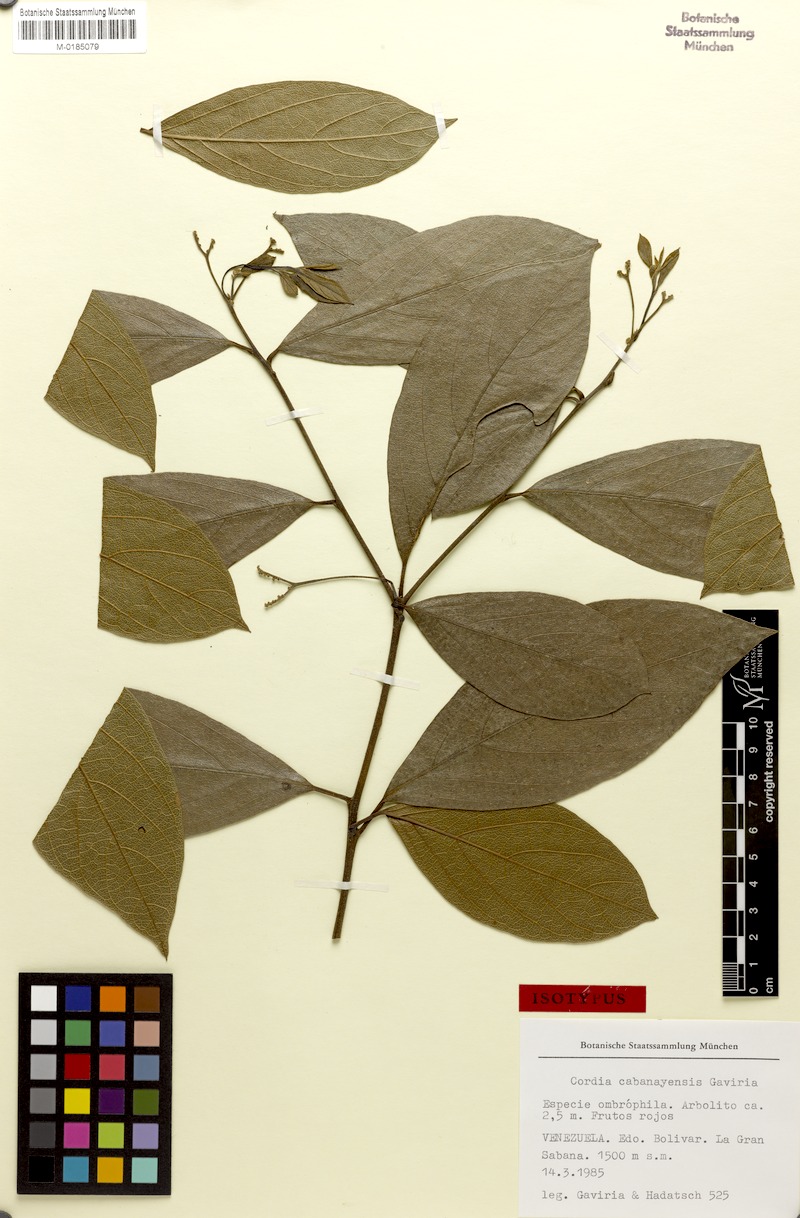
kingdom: Plantae
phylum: Tracheophyta
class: Magnoliopsida
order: Boraginales
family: Cordiaceae
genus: Cordia
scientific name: Cordia cabanayensis
